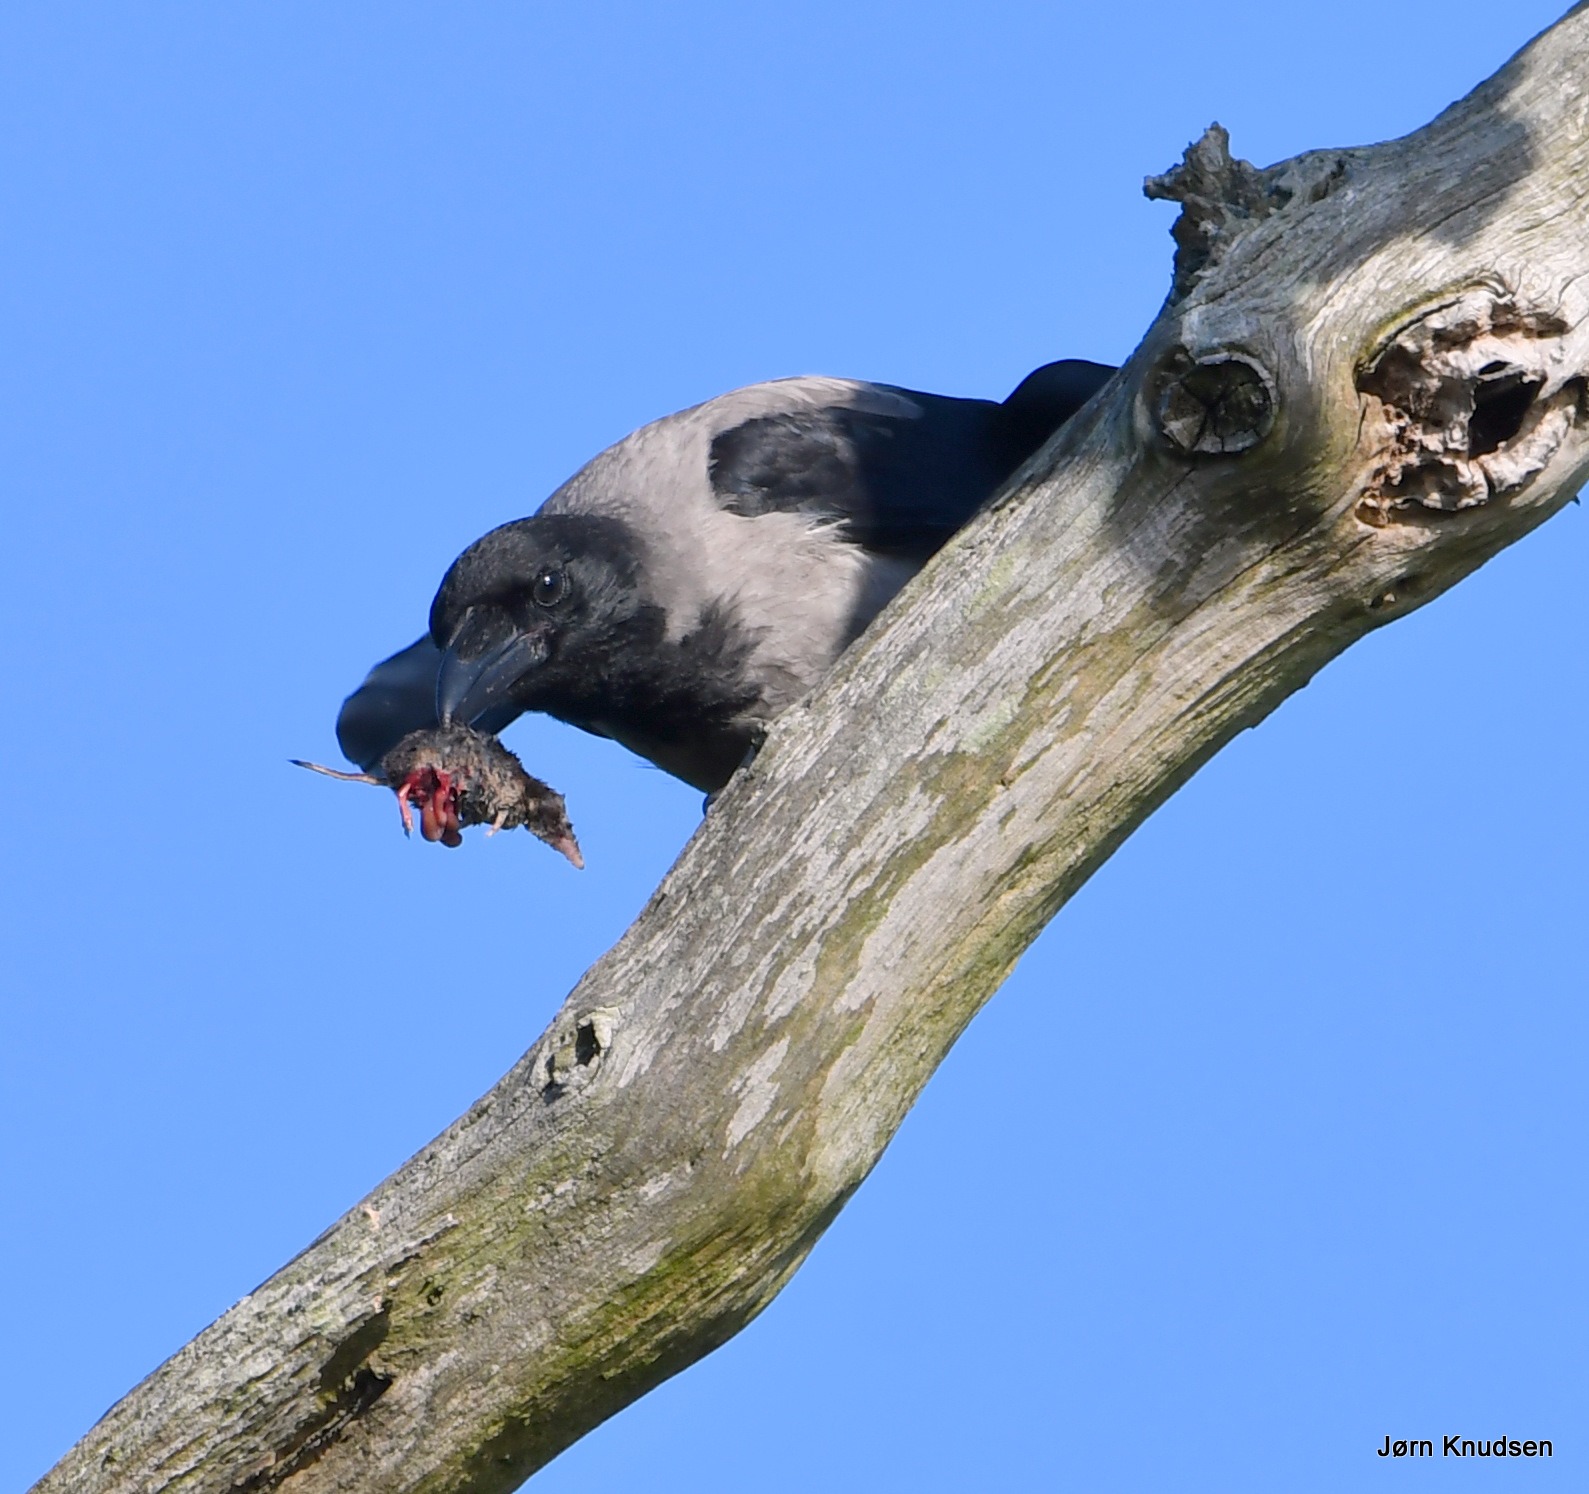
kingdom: Animalia
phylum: Chordata
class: Aves
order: Passeriformes
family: Corvidae
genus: Corvus
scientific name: Corvus cornix
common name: Gråkrage
